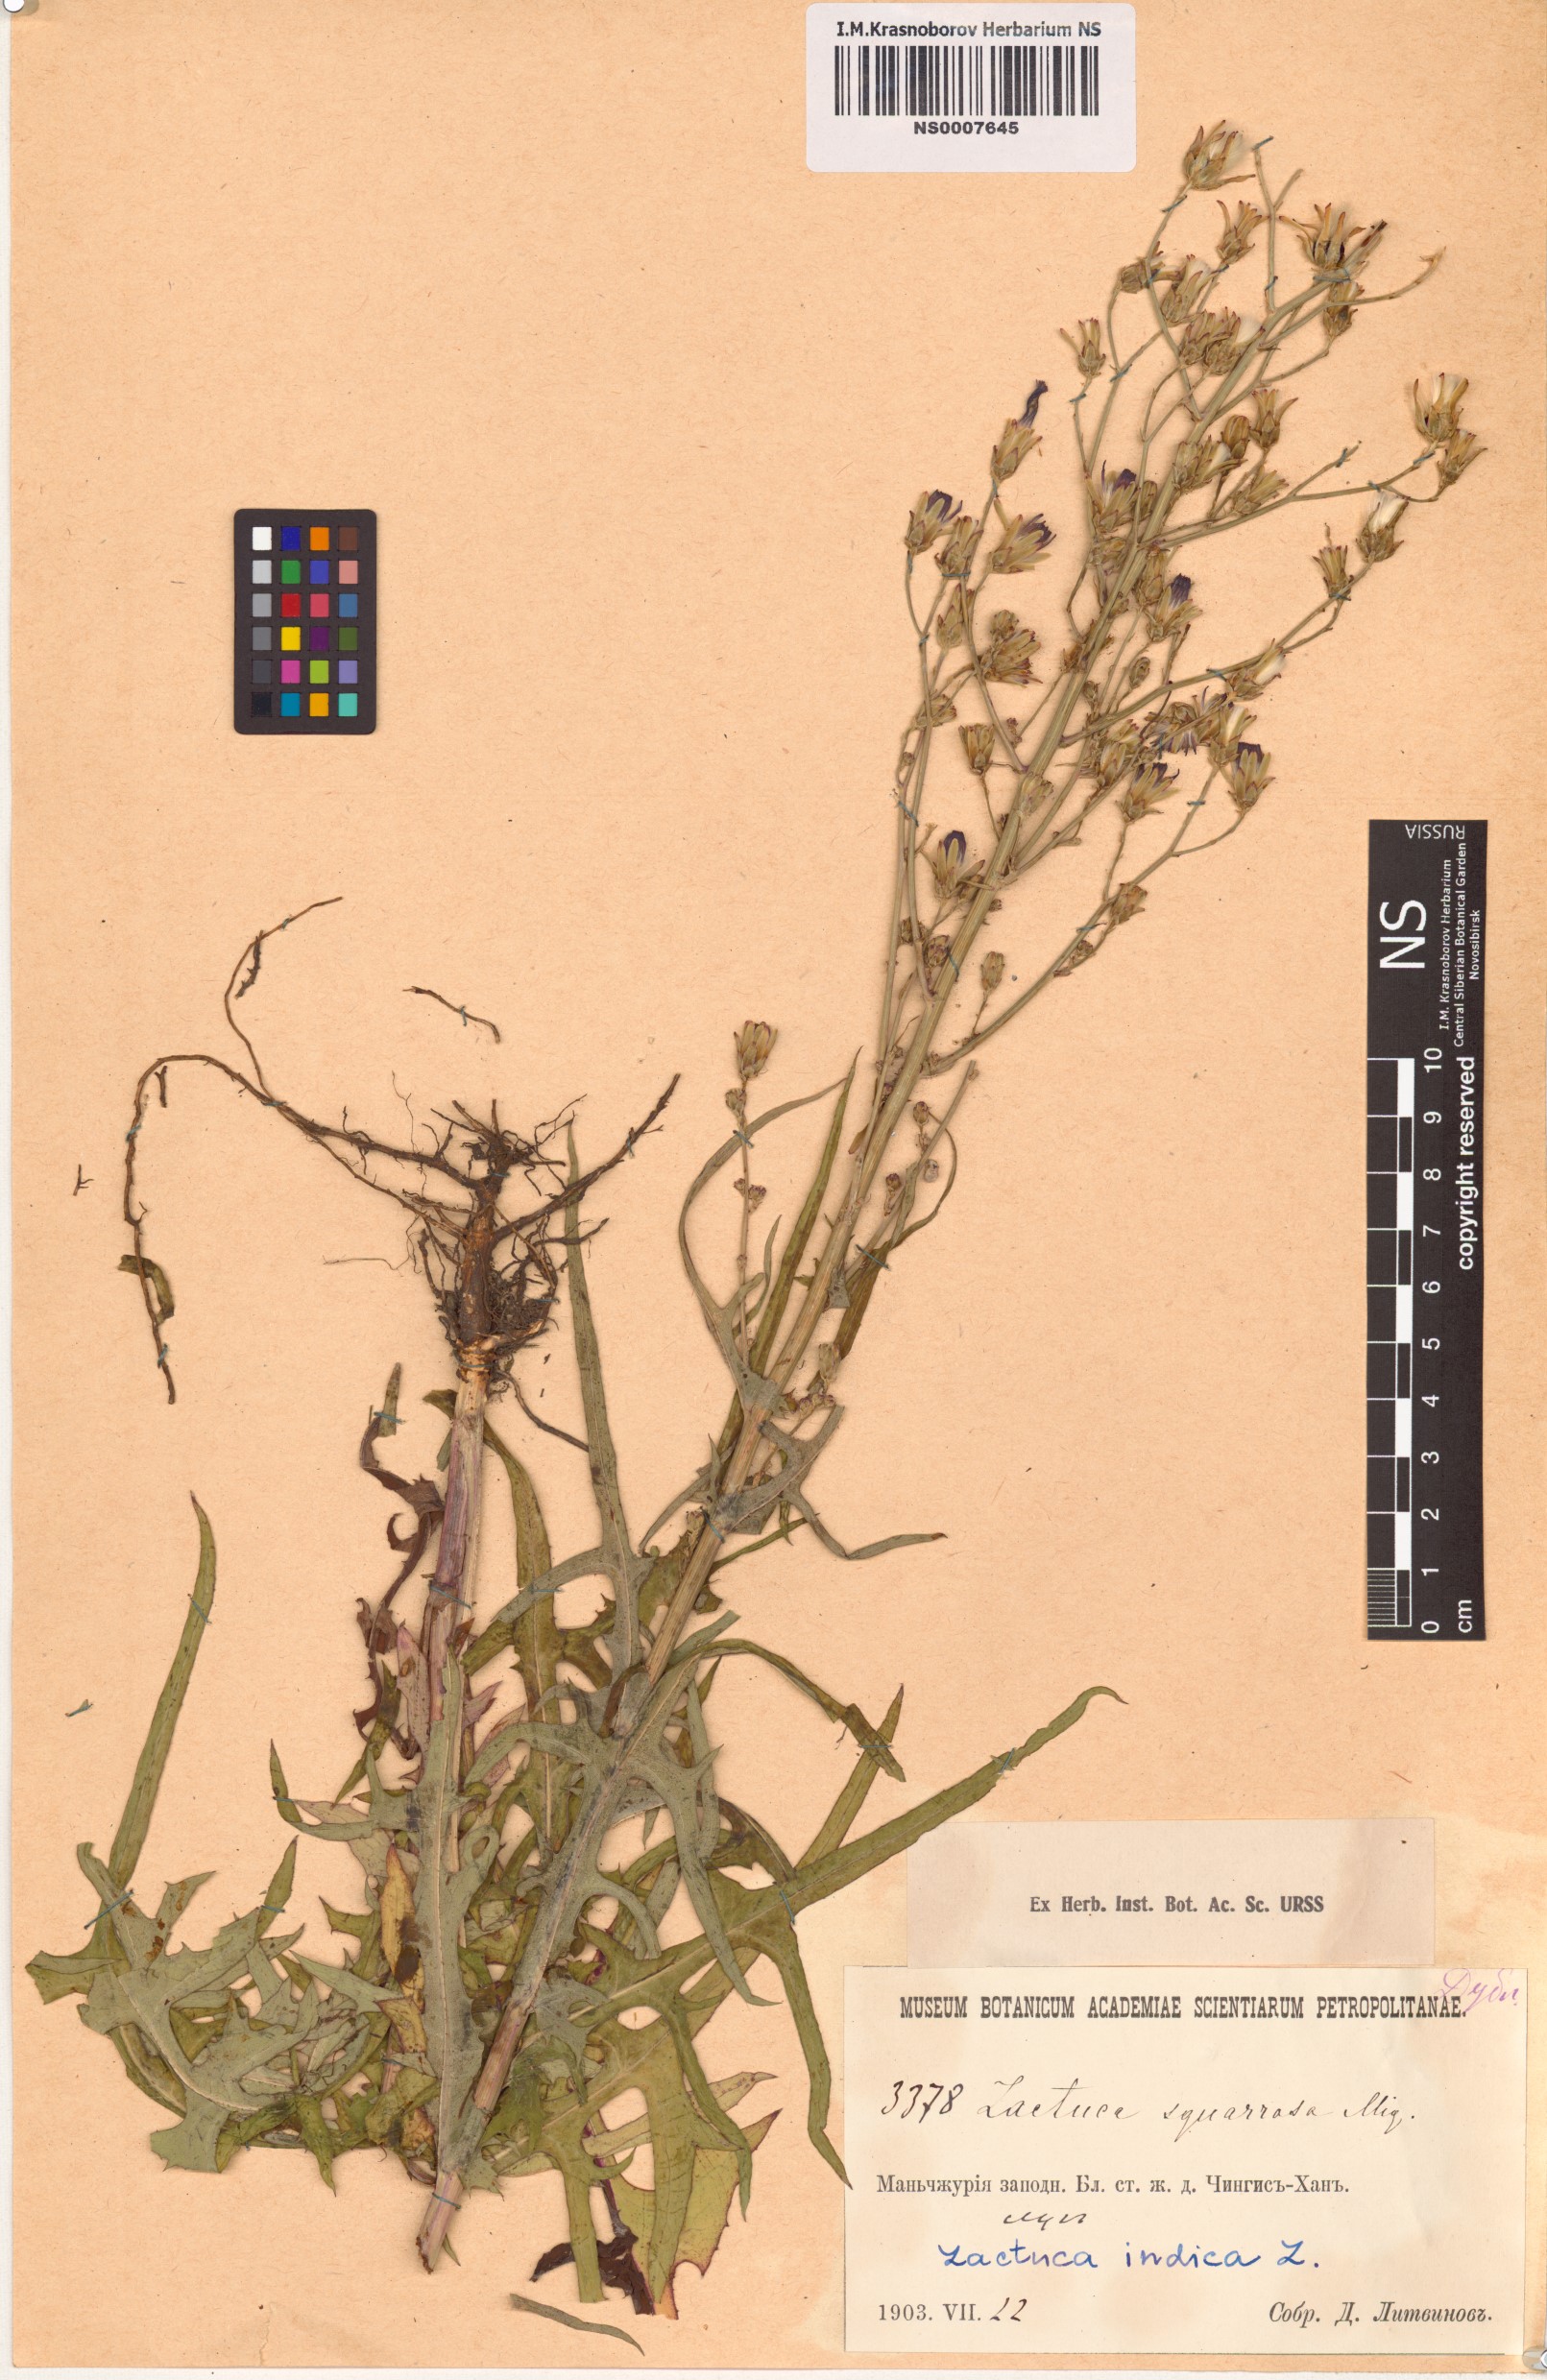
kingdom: Plantae
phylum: Tracheophyta
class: Magnoliopsida
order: Asterales
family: Asteraceae
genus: Lactuca
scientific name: Lactuca indica
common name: Wild lettuce
